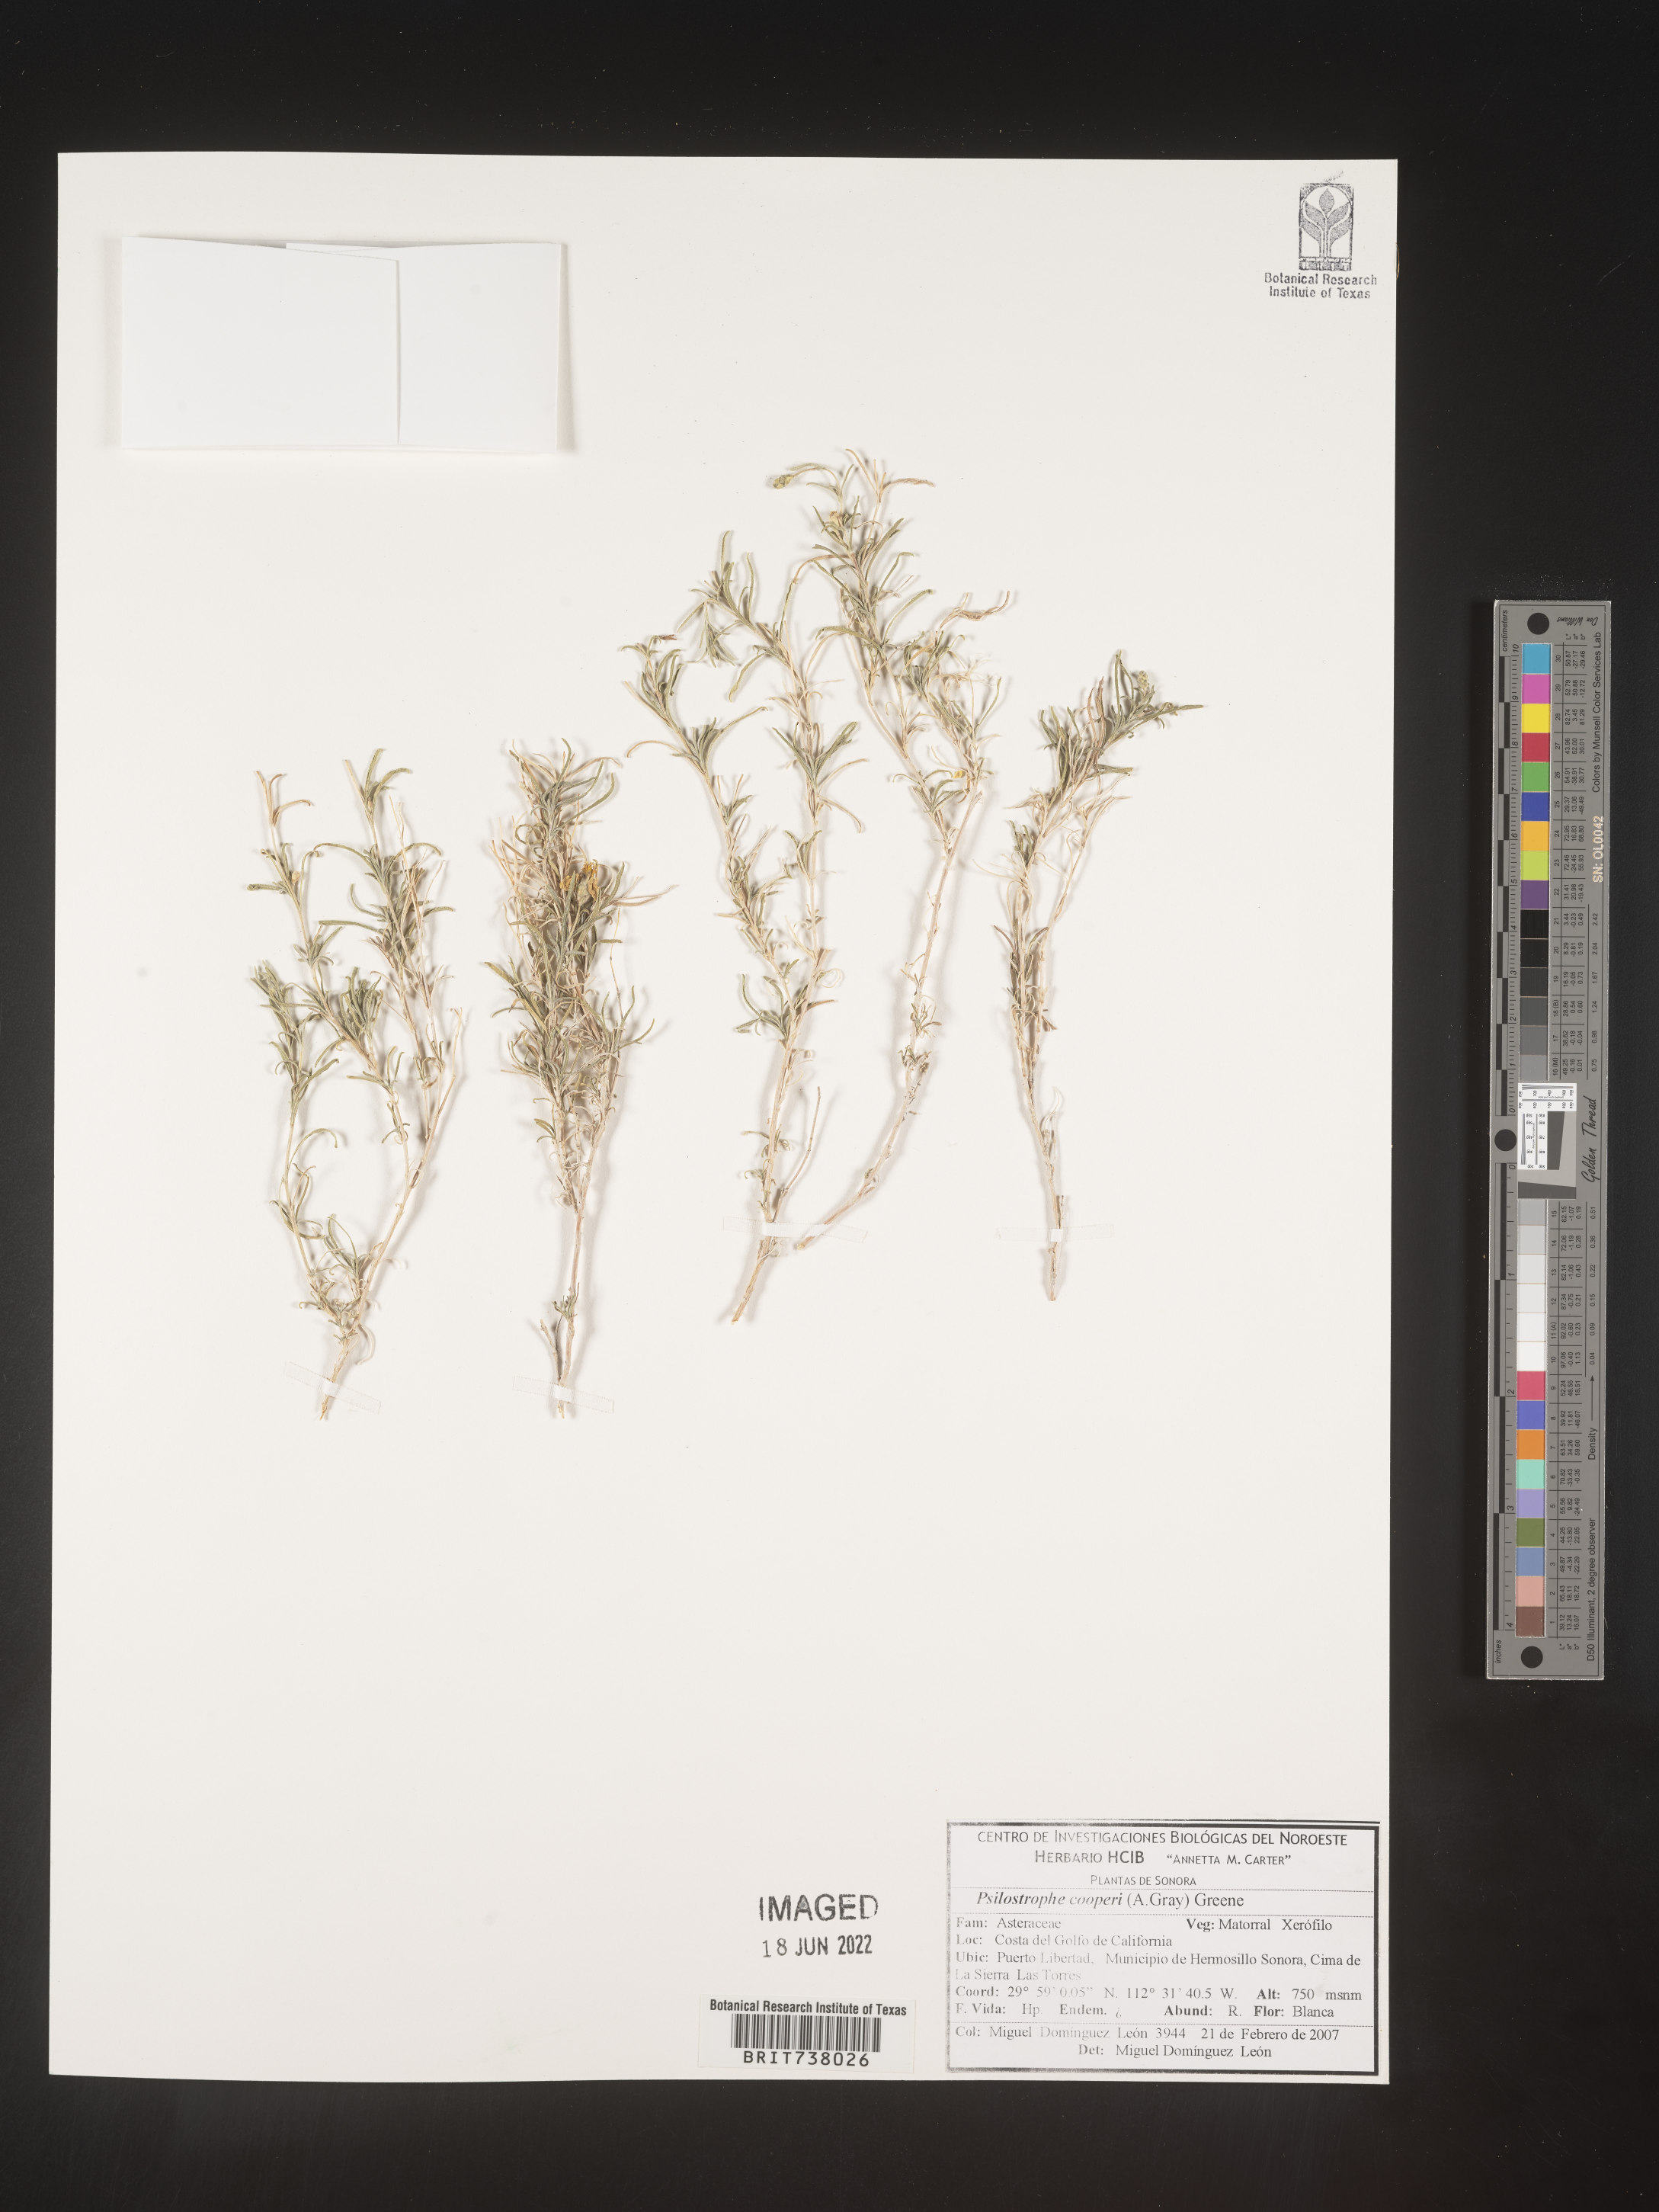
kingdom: Plantae
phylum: Tracheophyta
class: Magnoliopsida
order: Asterales
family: Asteraceae
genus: Psilostrophe
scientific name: Psilostrophe
